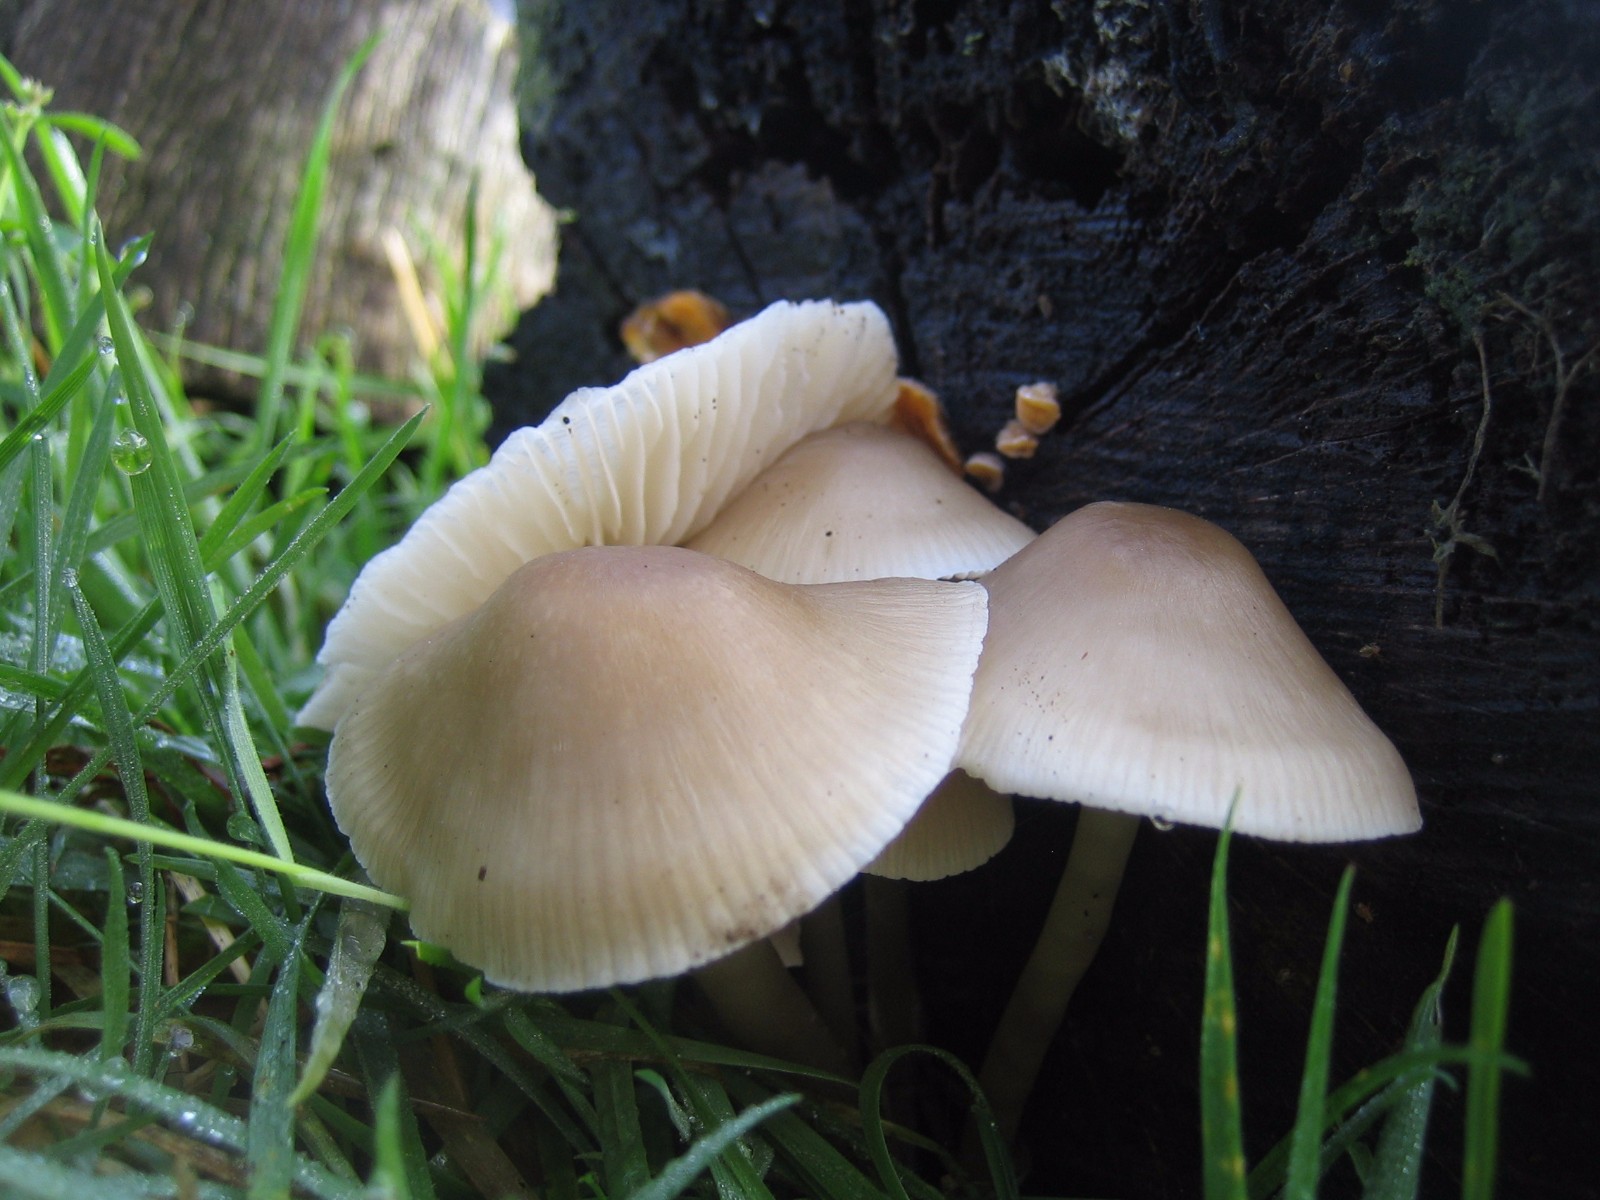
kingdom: Fungi
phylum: Basidiomycota
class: Agaricomycetes
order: Agaricales
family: Mycenaceae
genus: Mycena
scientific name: Mycena galericulata
